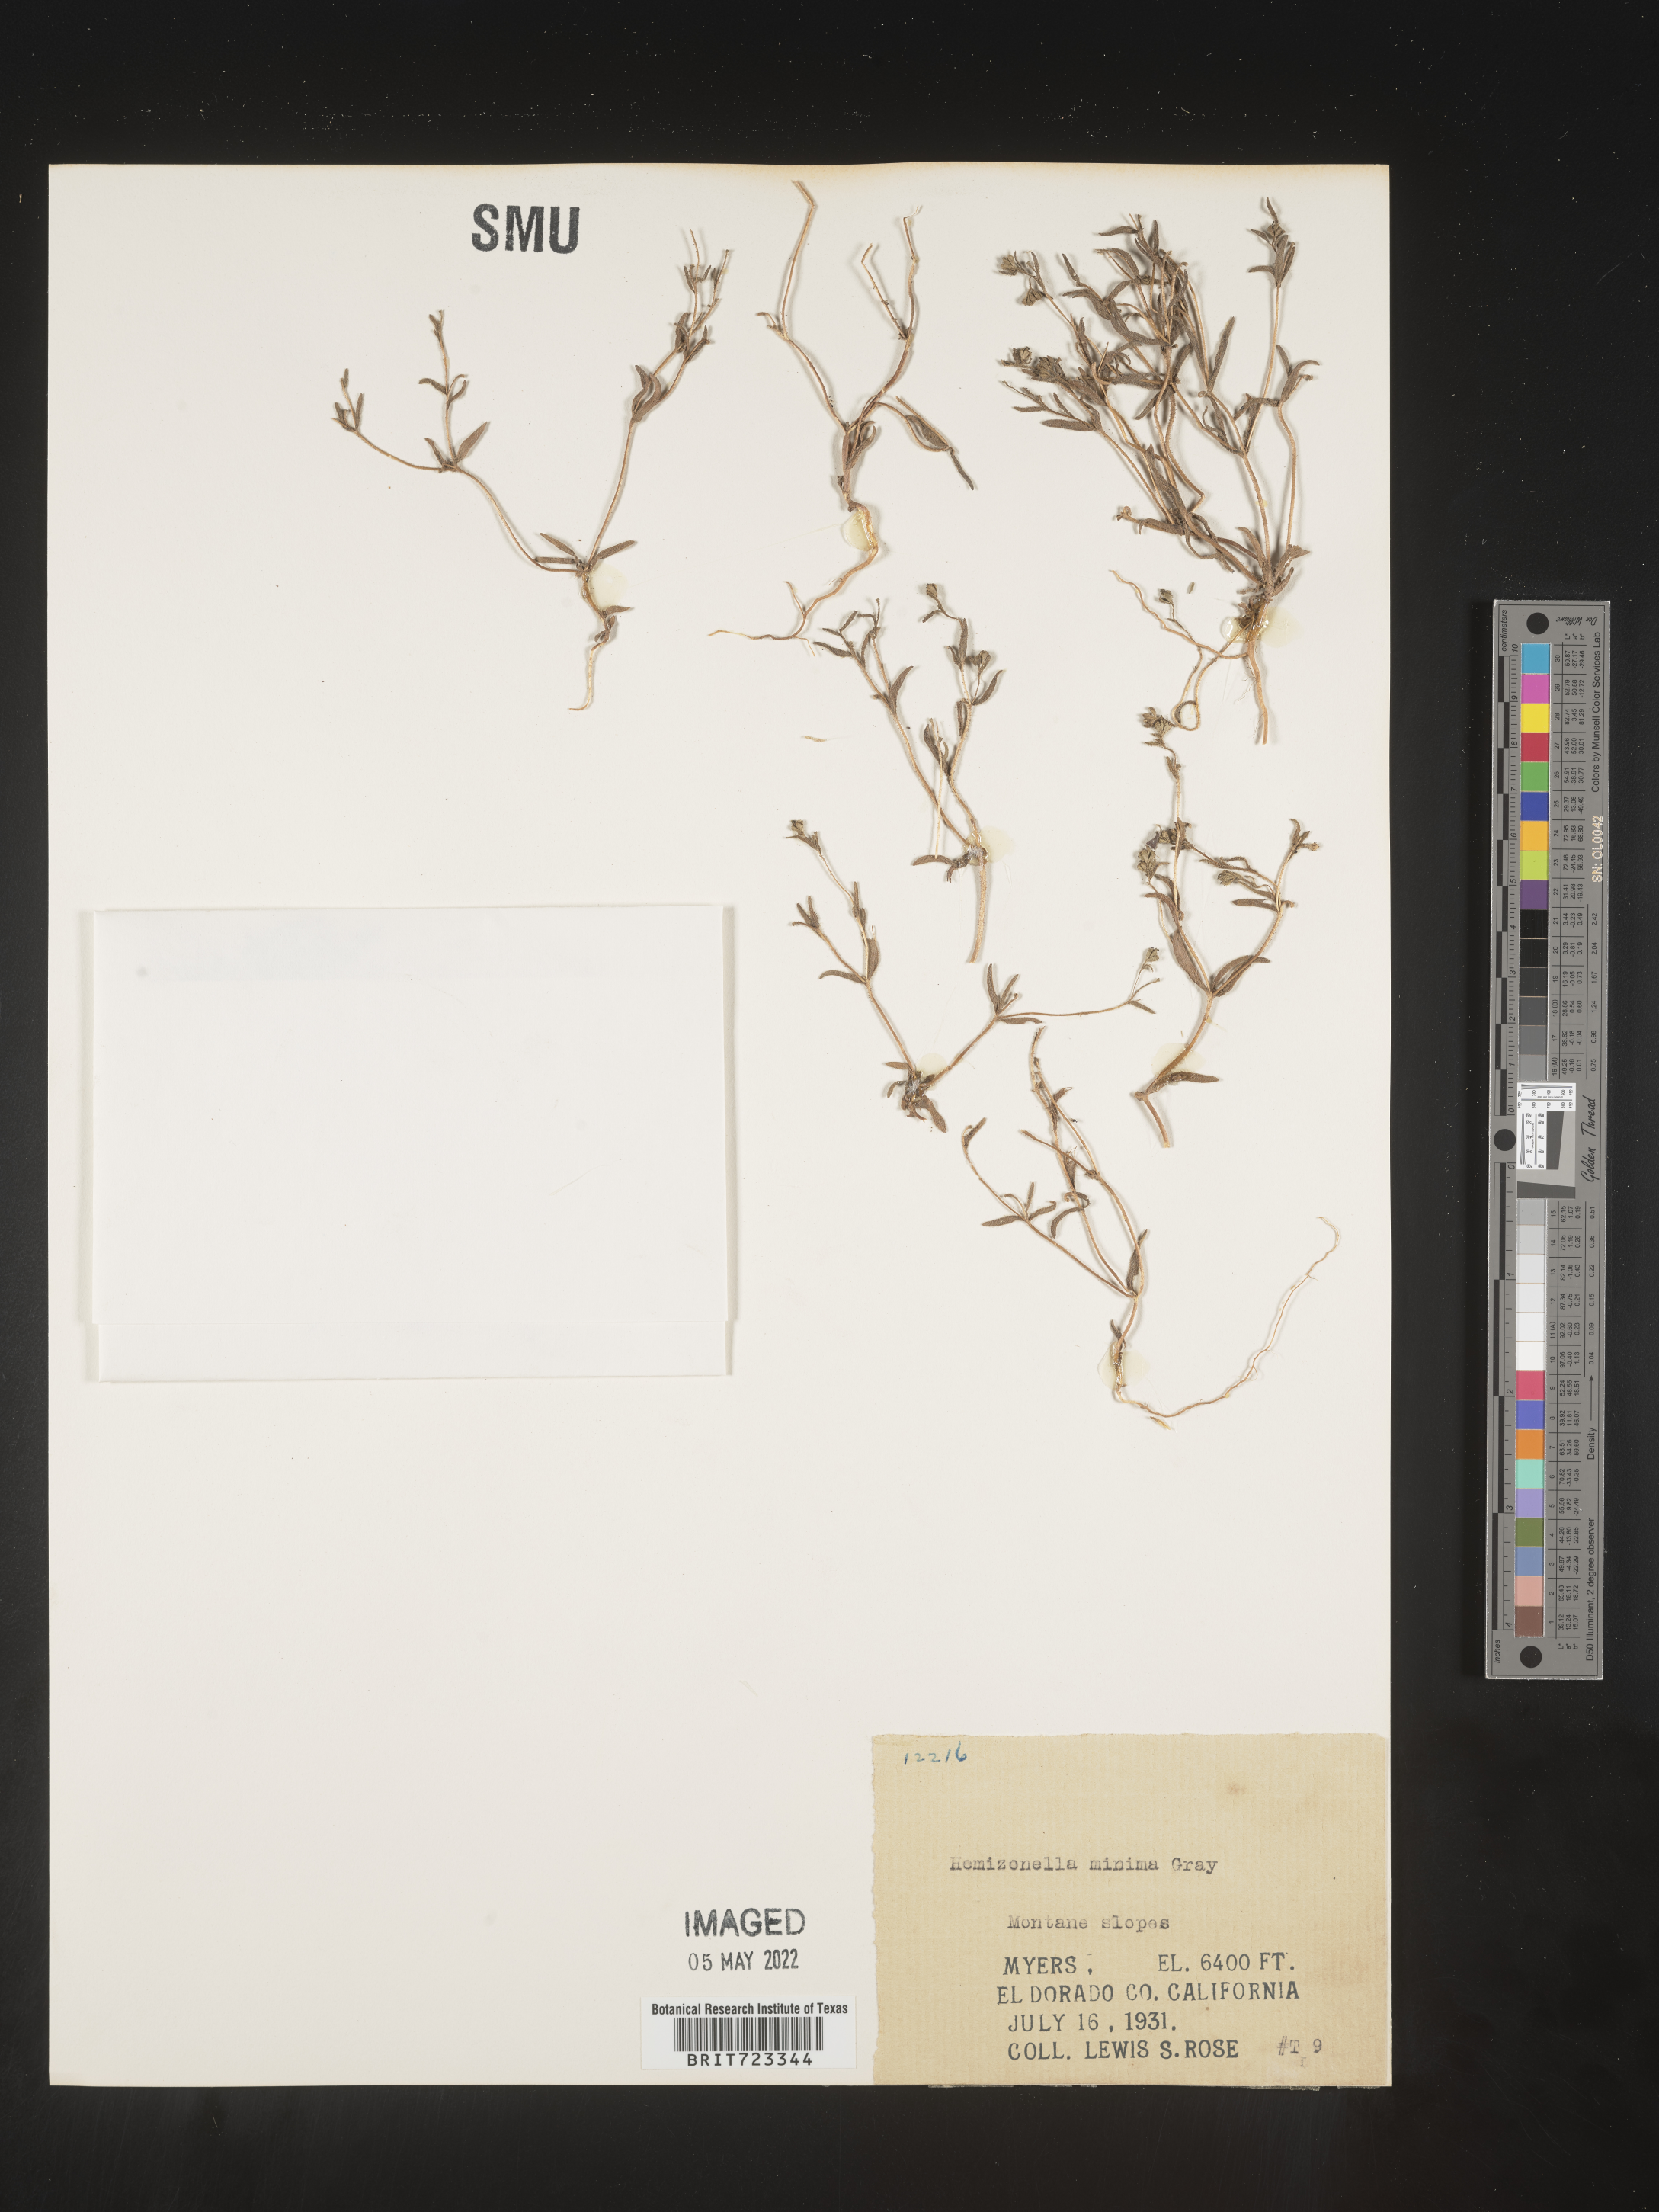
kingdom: Plantae
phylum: Tracheophyta
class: Magnoliopsida
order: Asterales
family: Asteraceae
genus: Hemizonella
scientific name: Hemizonella
